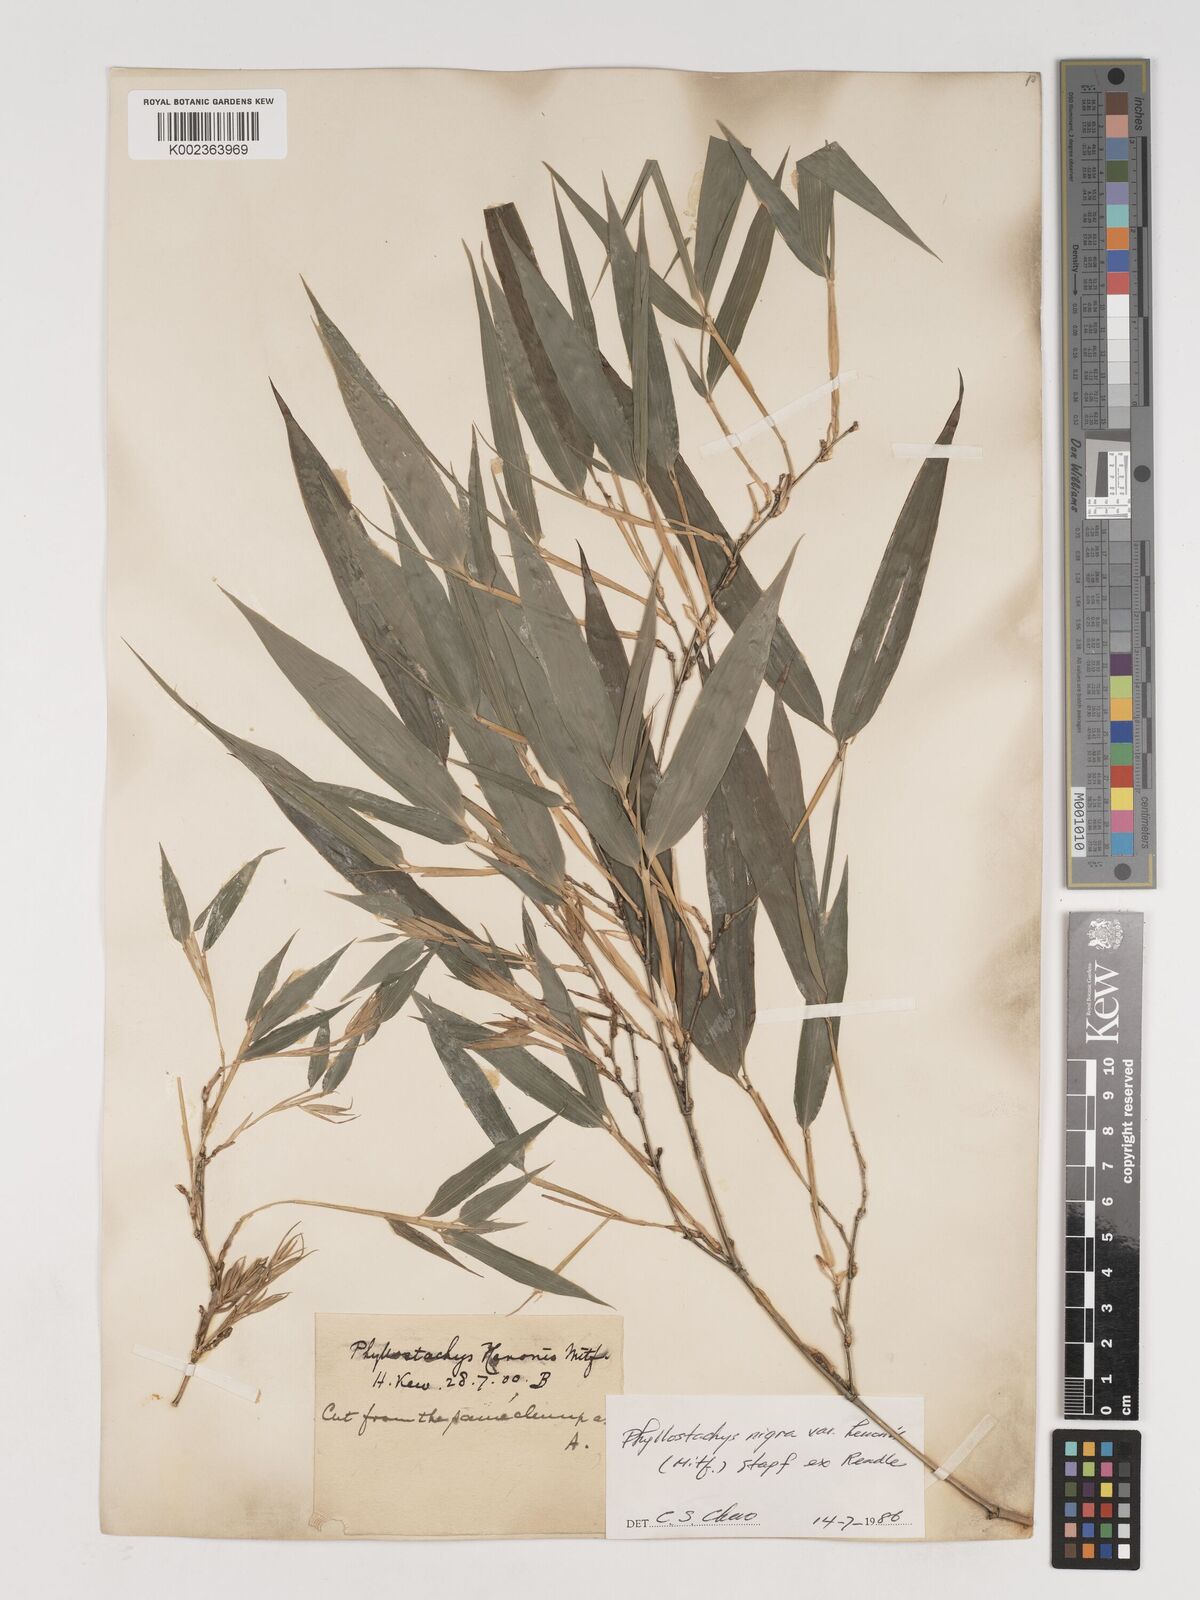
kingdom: Plantae
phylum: Tracheophyta
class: Liliopsida
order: Poales
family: Poaceae
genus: Phyllostachys
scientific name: Phyllostachys nigra
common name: Black bamboo
